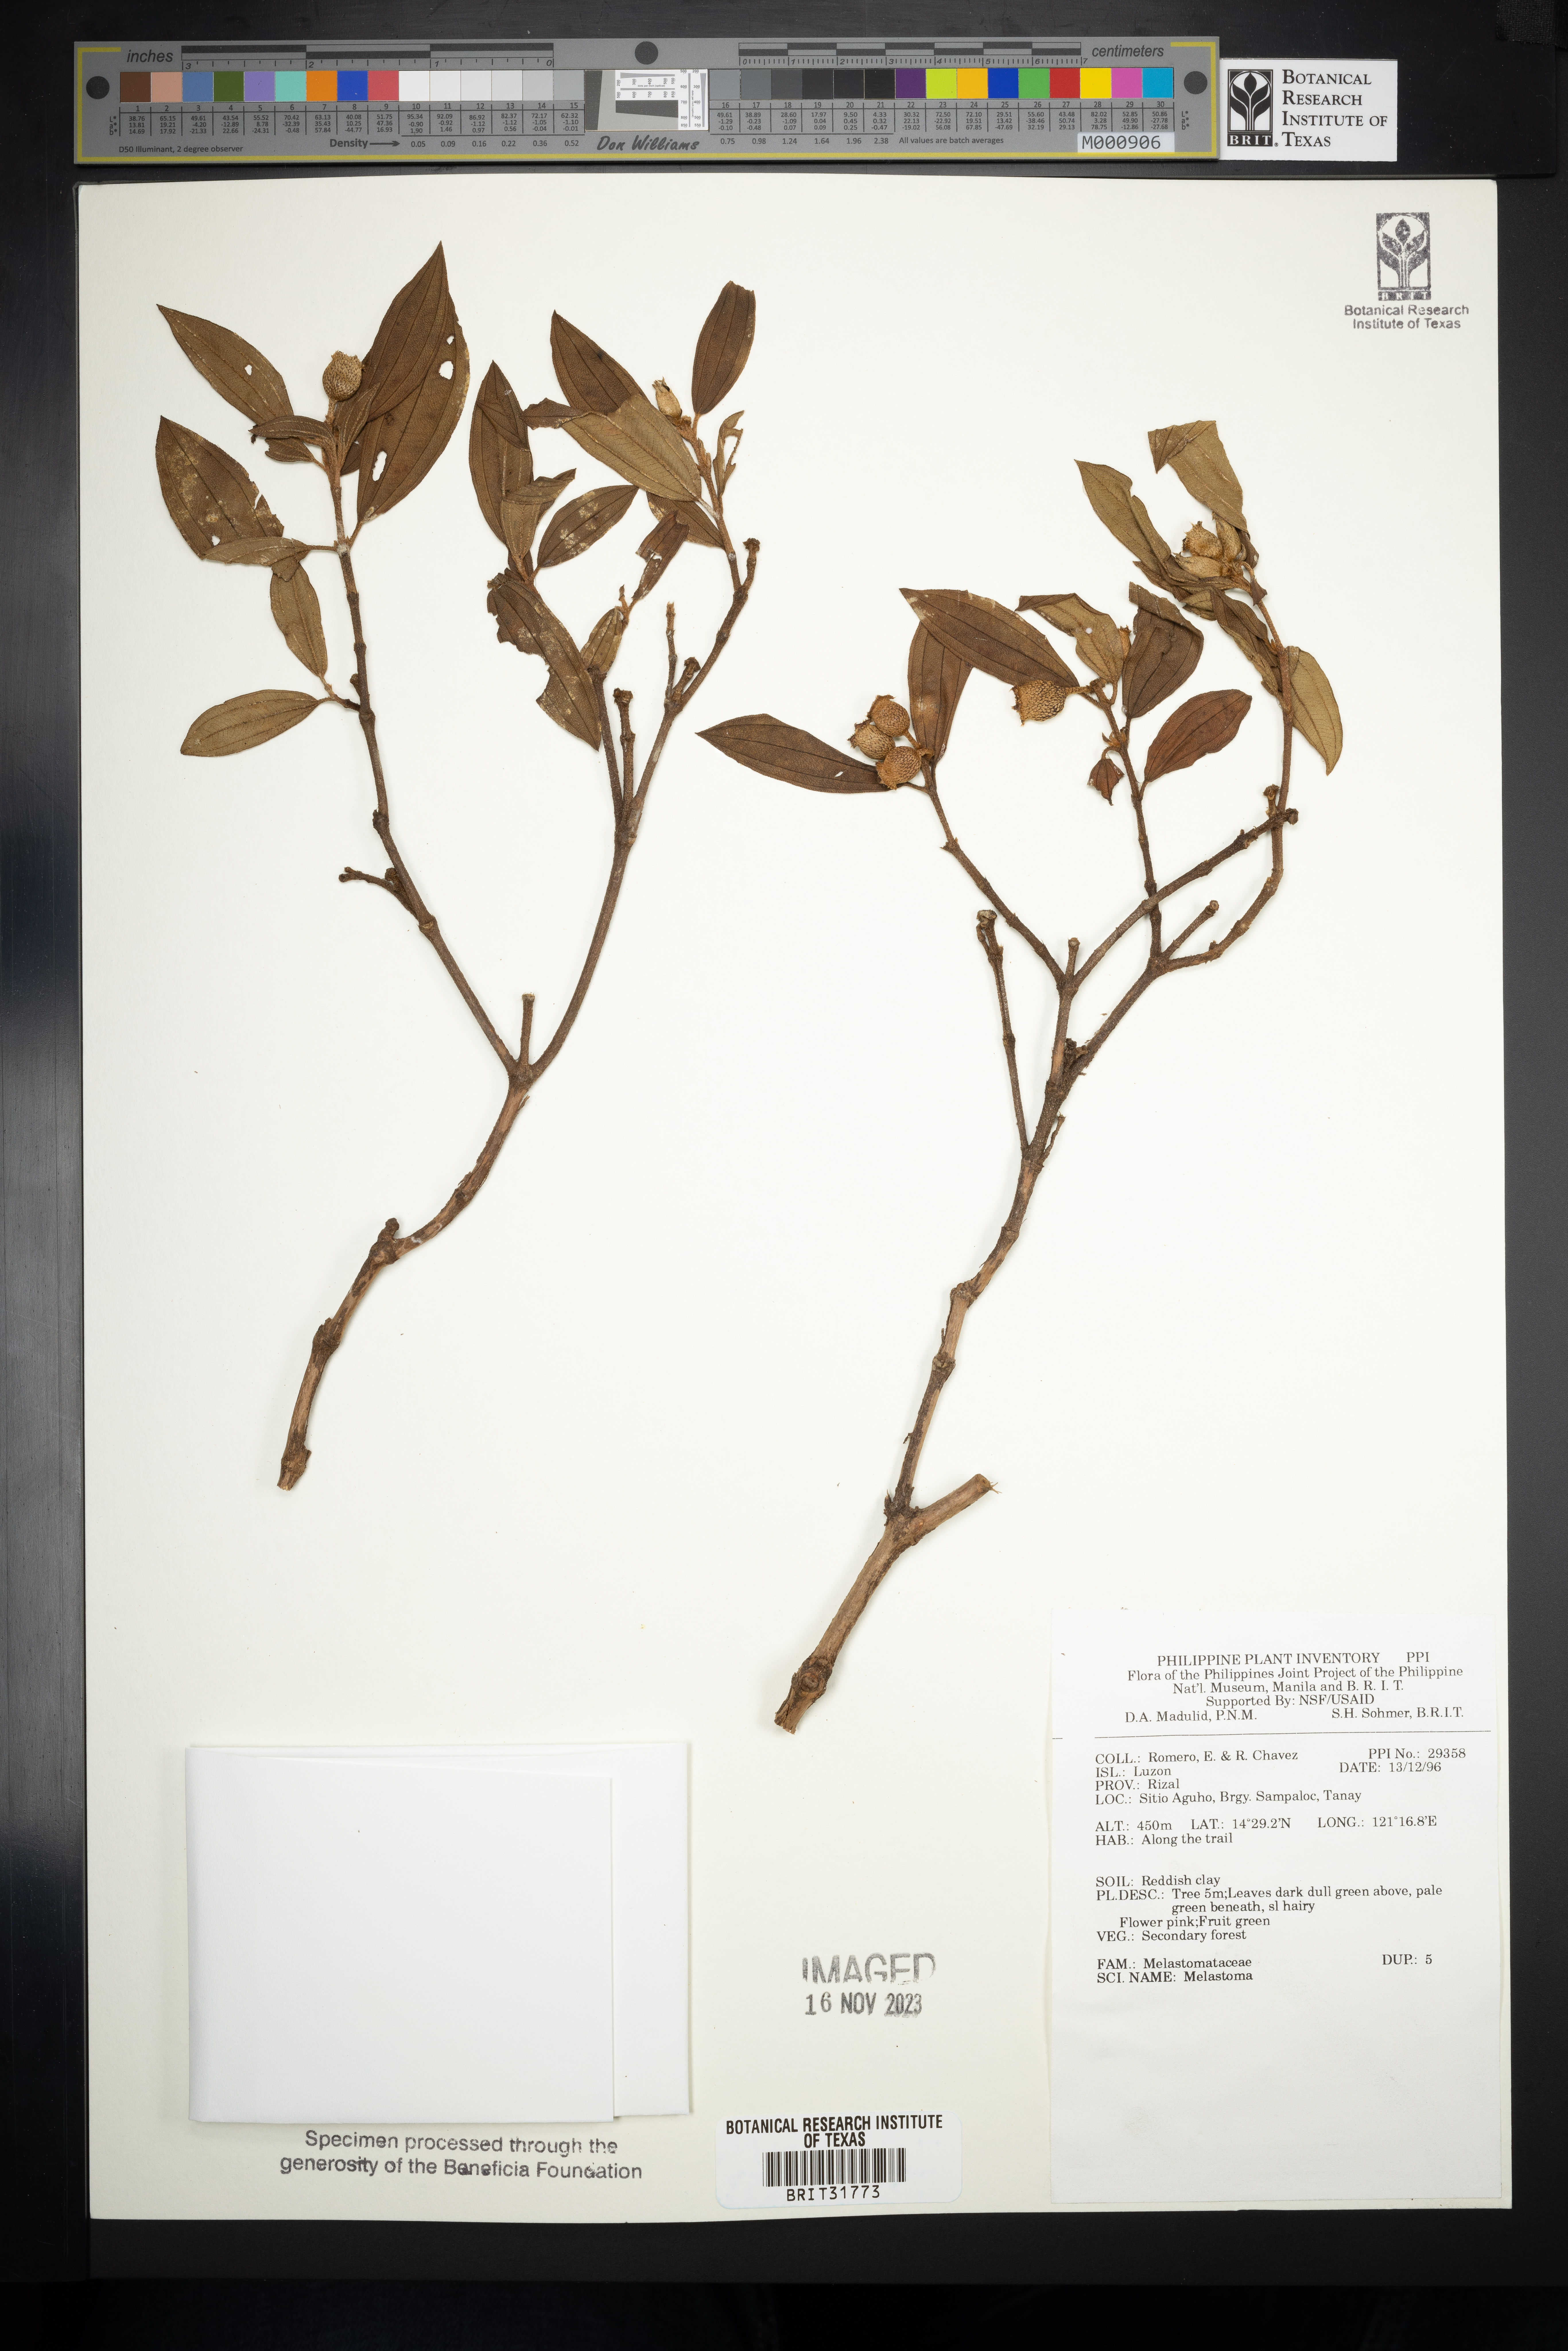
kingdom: Plantae
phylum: Tracheophyta
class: Magnoliopsida
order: Myrtales
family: Melastomataceae
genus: Melastoma
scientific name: Melastoma
